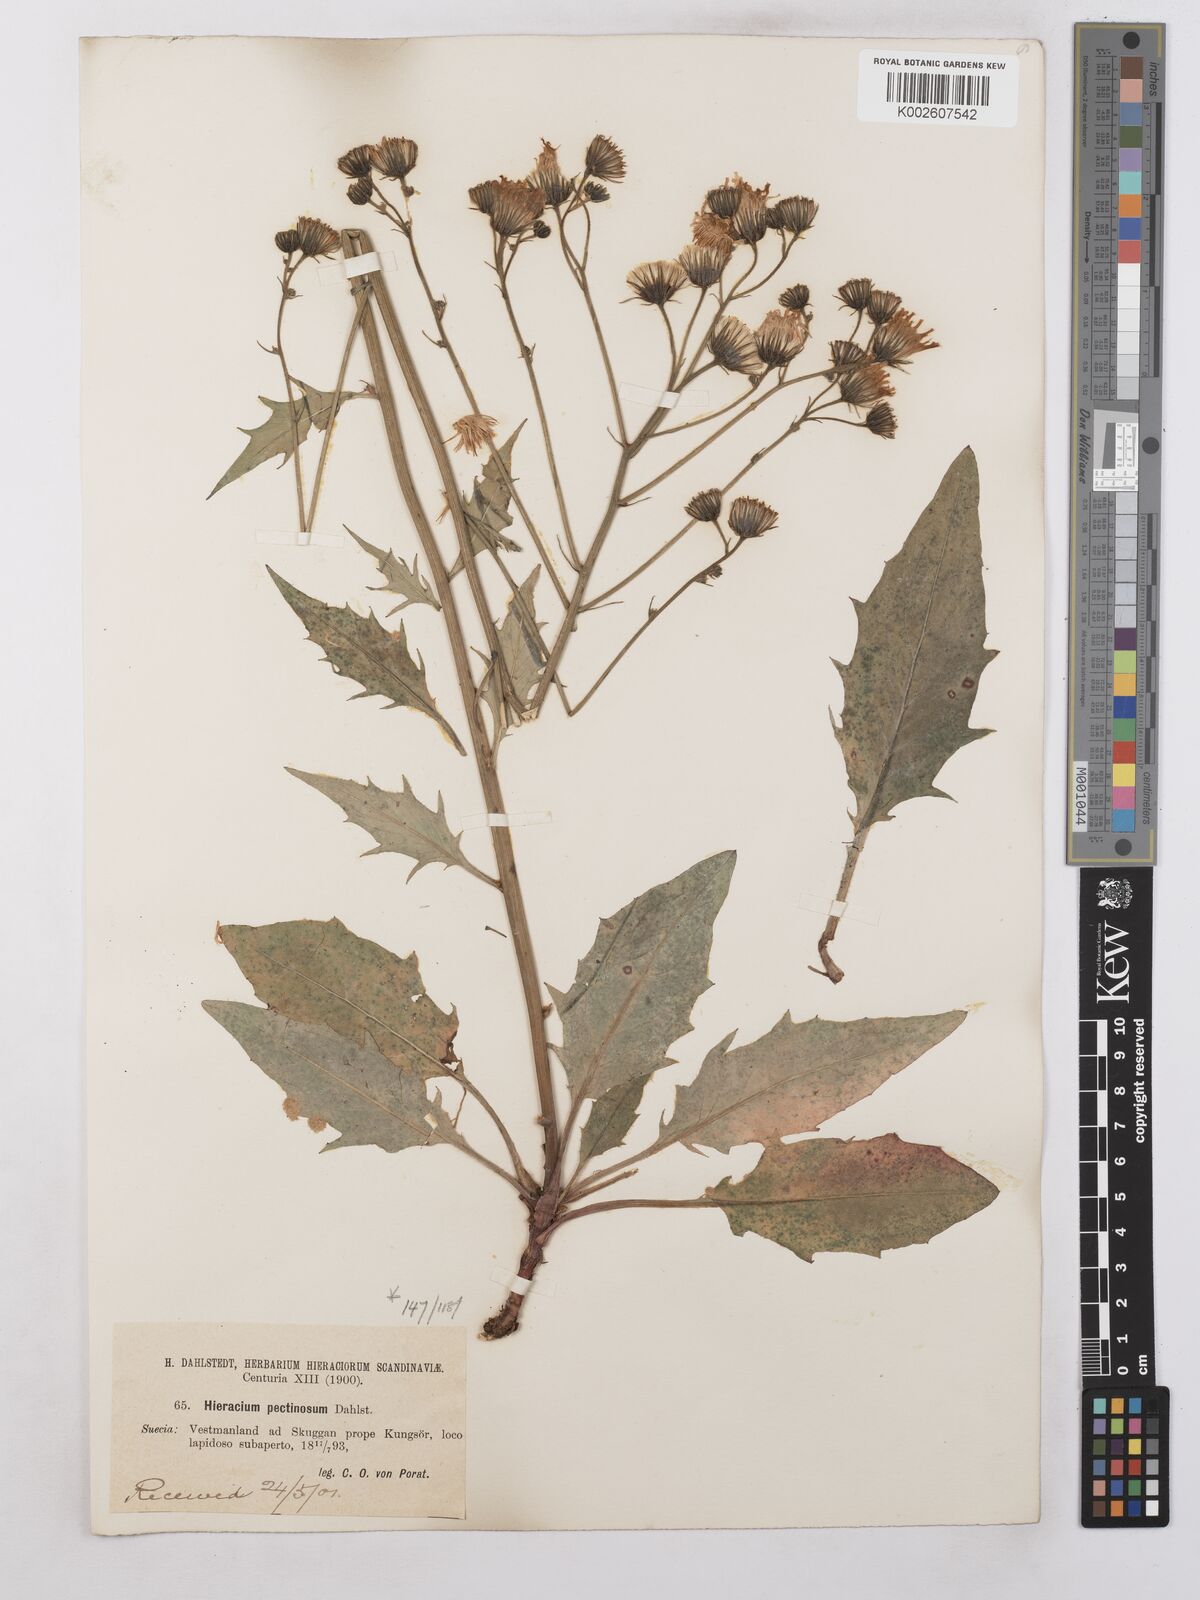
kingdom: Plantae
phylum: Tracheophyta
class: Magnoliopsida
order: Asterales
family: Asteraceae
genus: Hieracium
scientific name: Hieracium caesium
